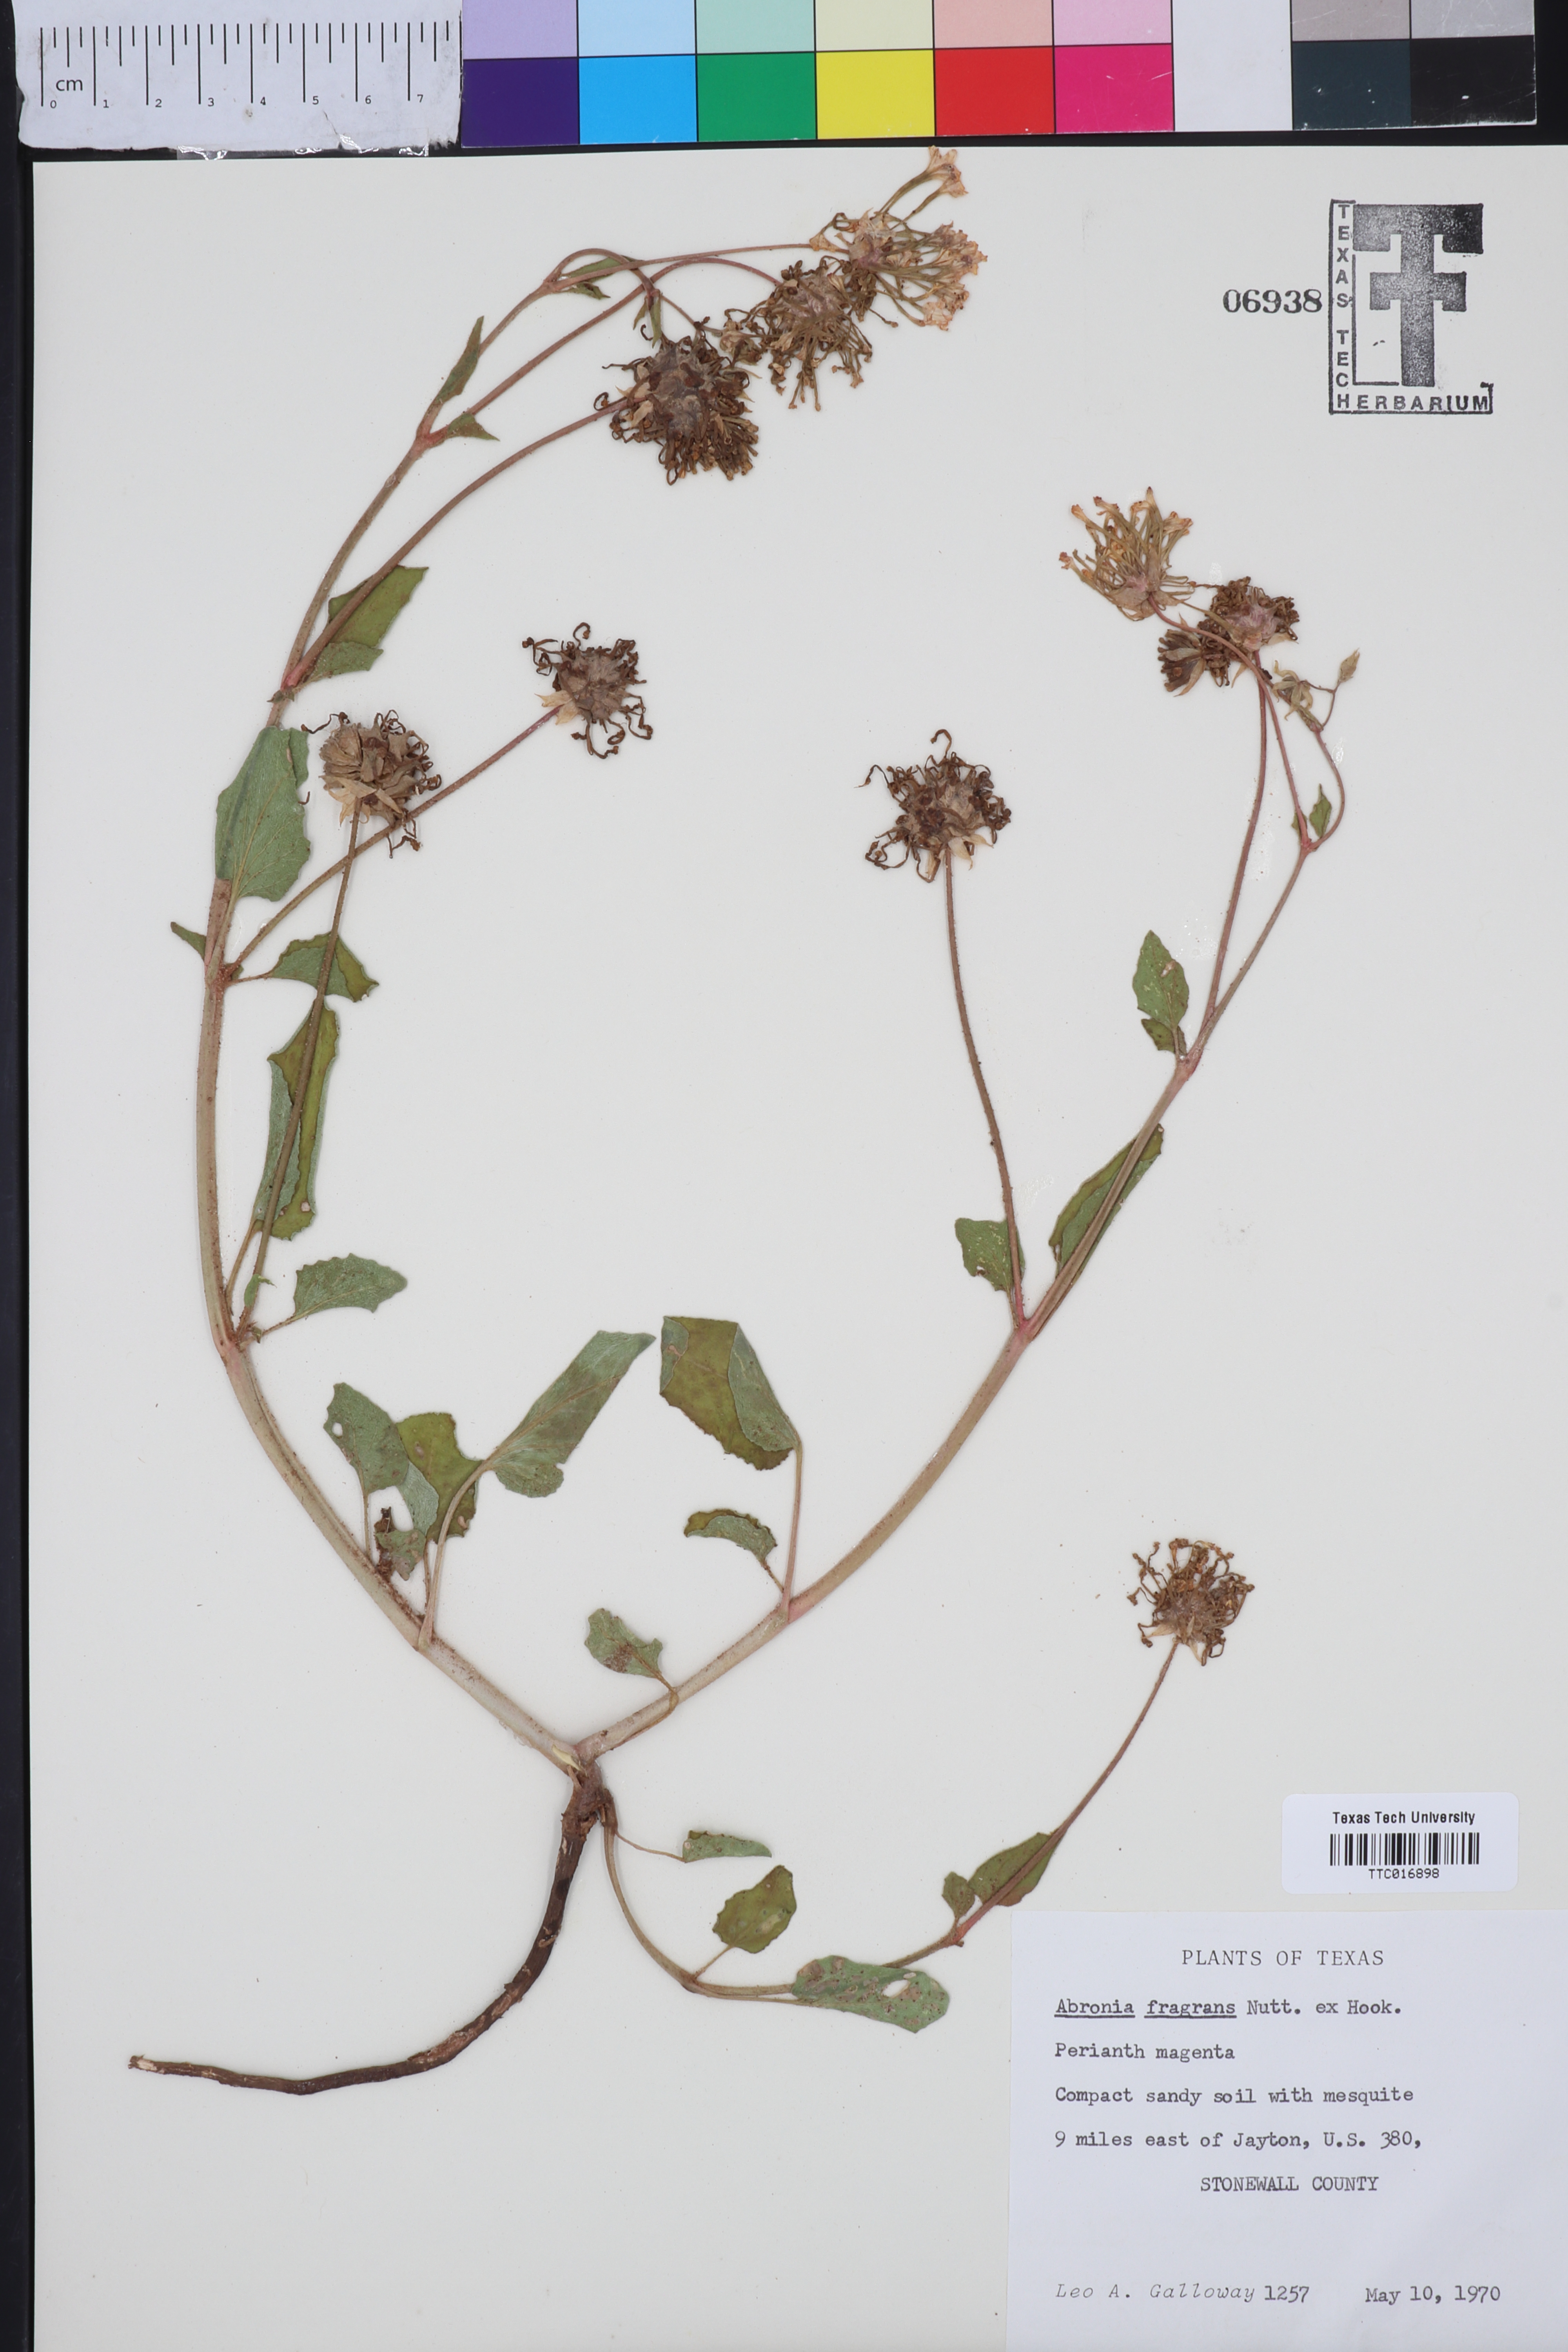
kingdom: Plantae
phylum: Tracheophyta
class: Magnoliopsida
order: Caryophyllales
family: Nyctaginaceae
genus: Abronia
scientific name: Abronia fragrans
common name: Fragrant sand-verbena
